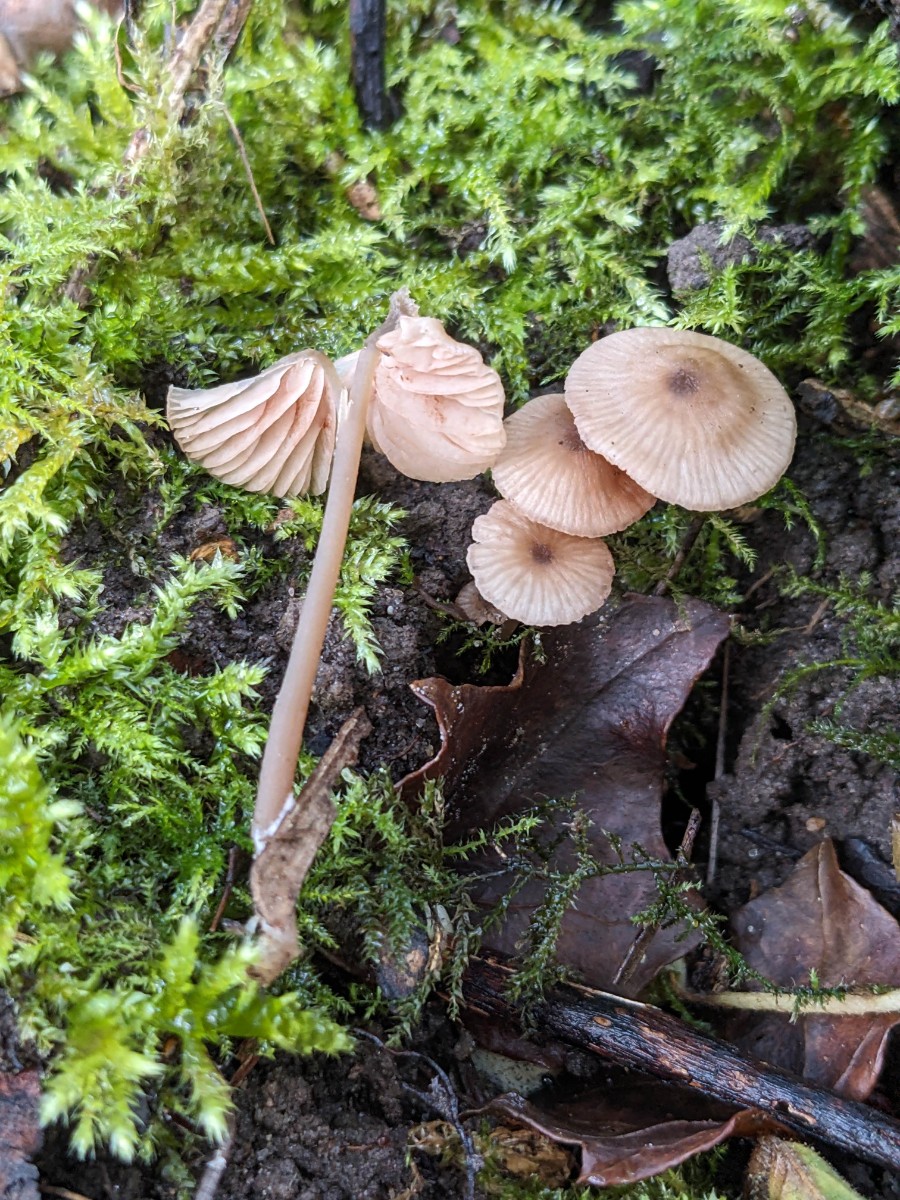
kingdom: Fungi
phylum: Basidiomycota
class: Agaricomycetes
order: Agaricales
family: Entolomataceae
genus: Entoloma
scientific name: Entoloma minutum
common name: liden rødblad
